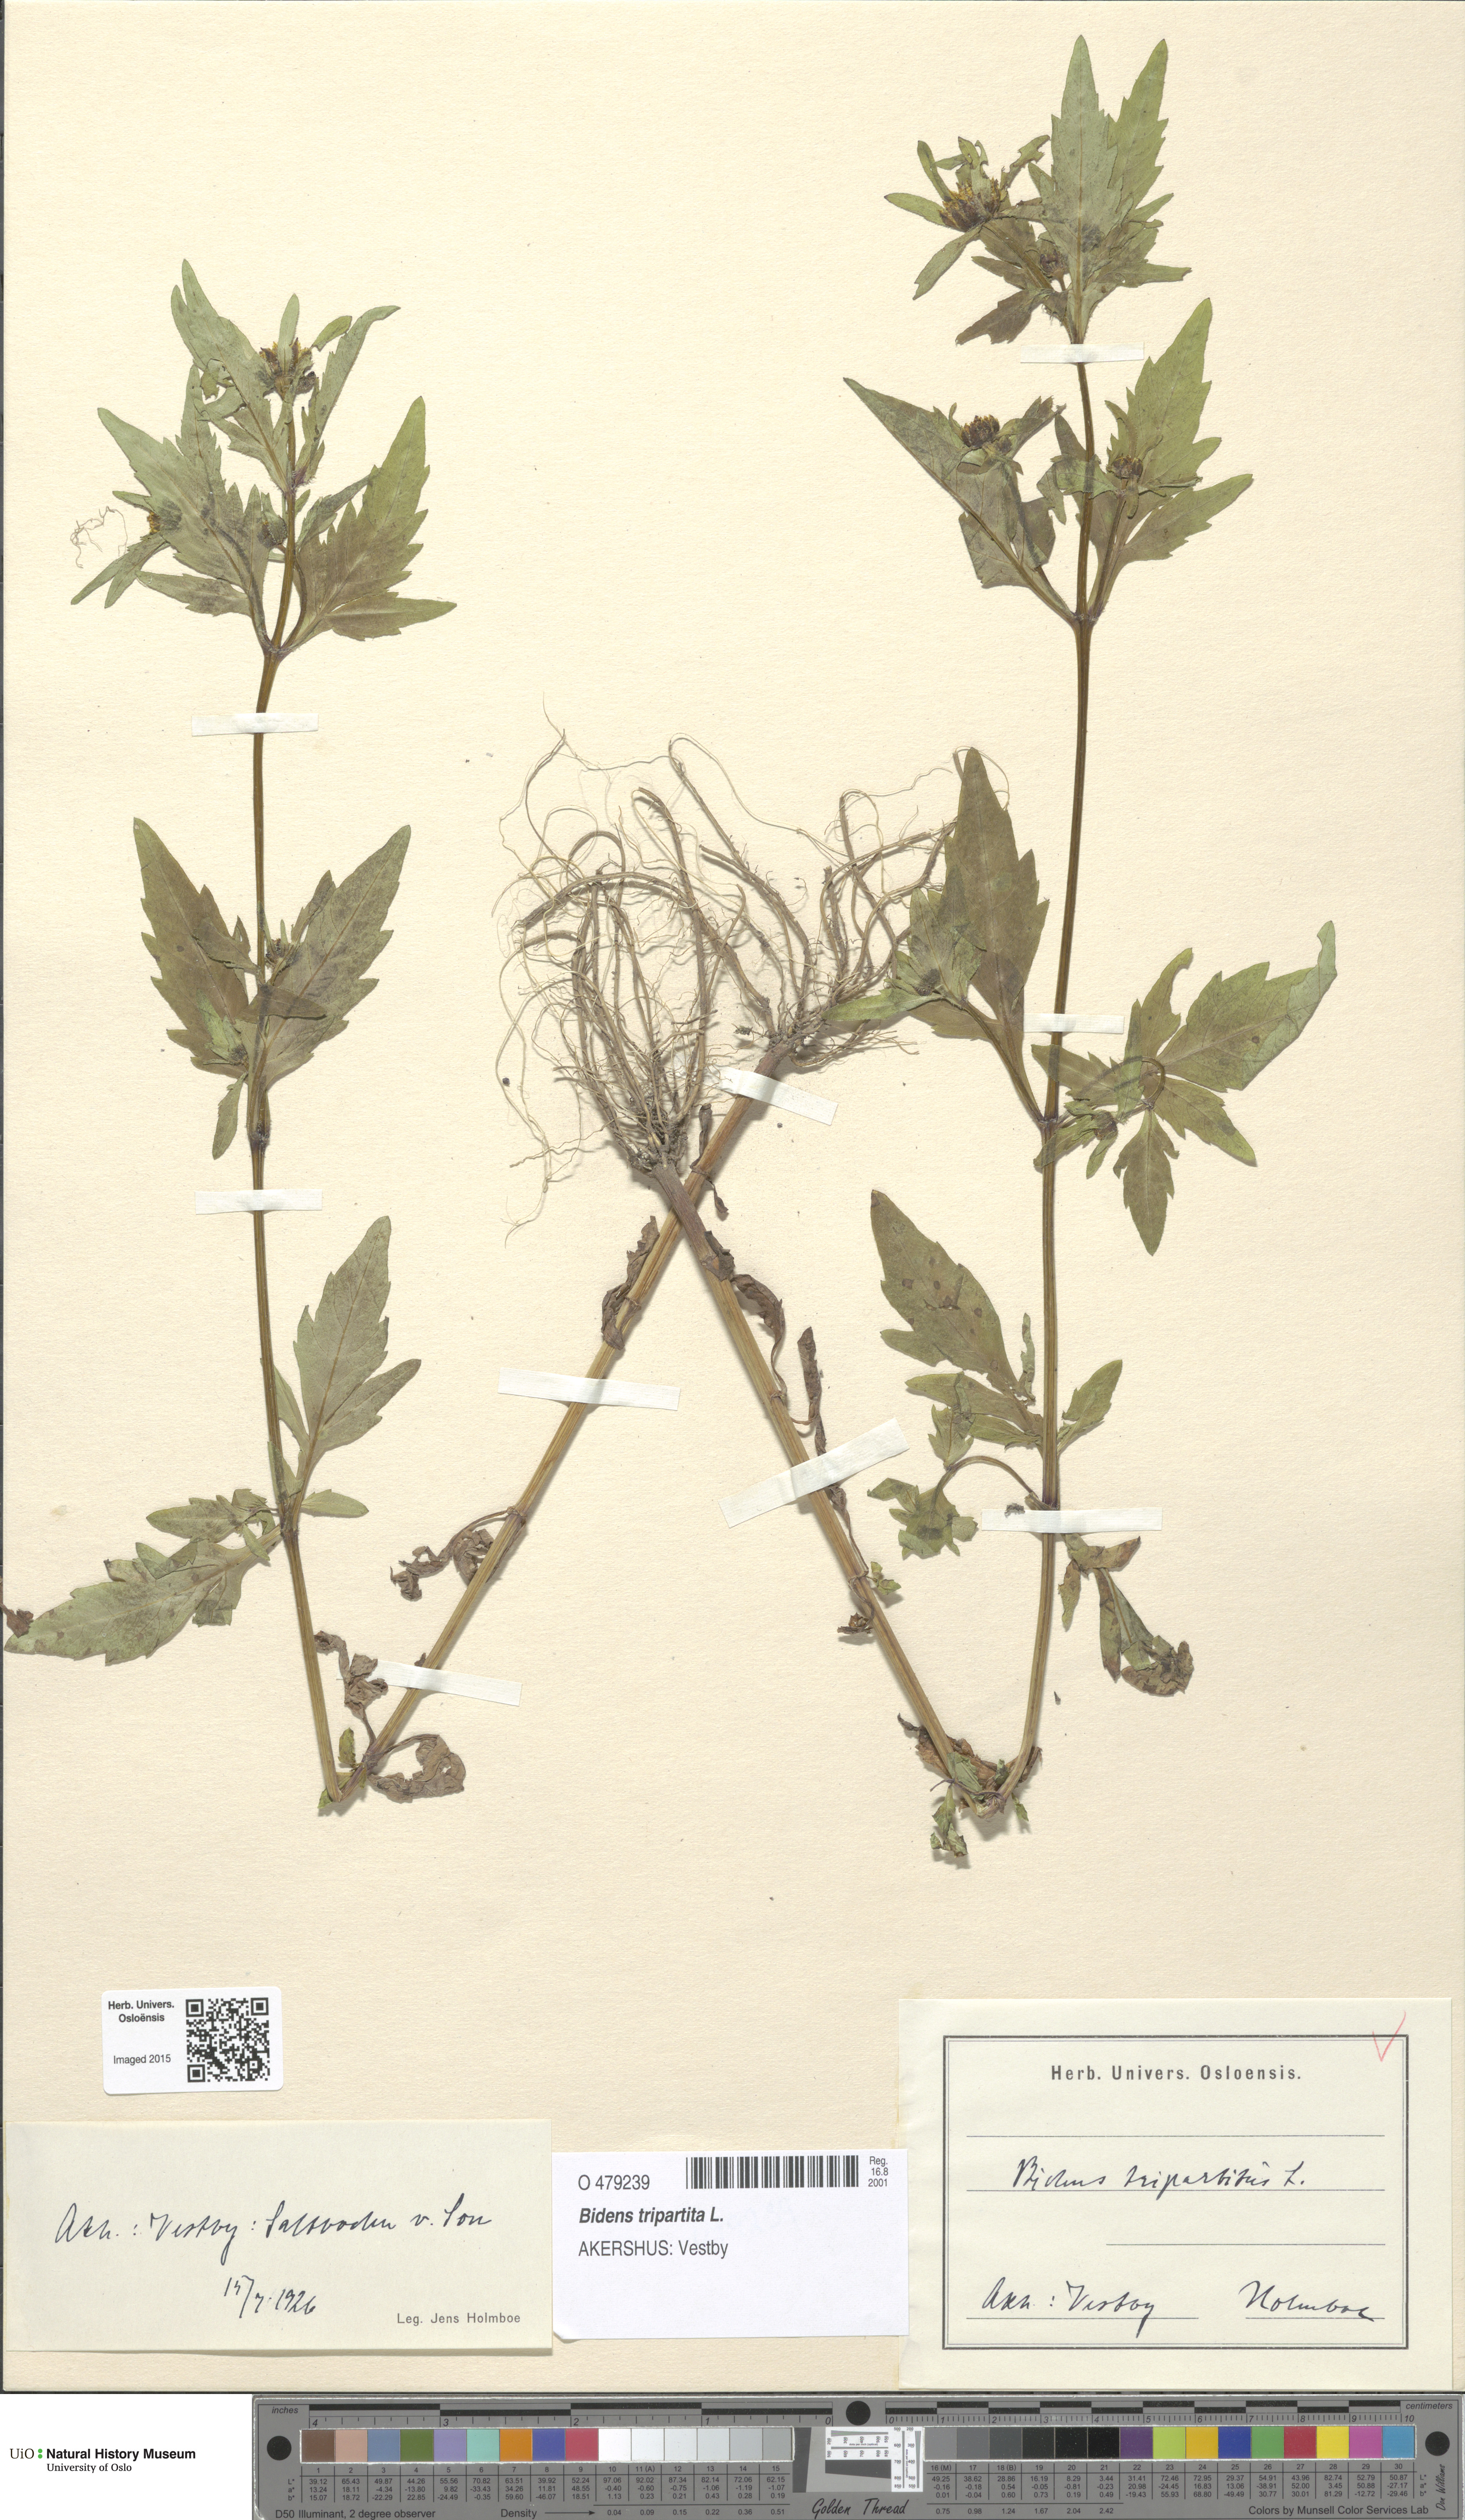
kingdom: Plantae
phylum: Tracheophyta
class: Magnoliopsida
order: Asterales
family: Asteraceae
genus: Bidens
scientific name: Bidens tripartita
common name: Trifid bur-marigold
